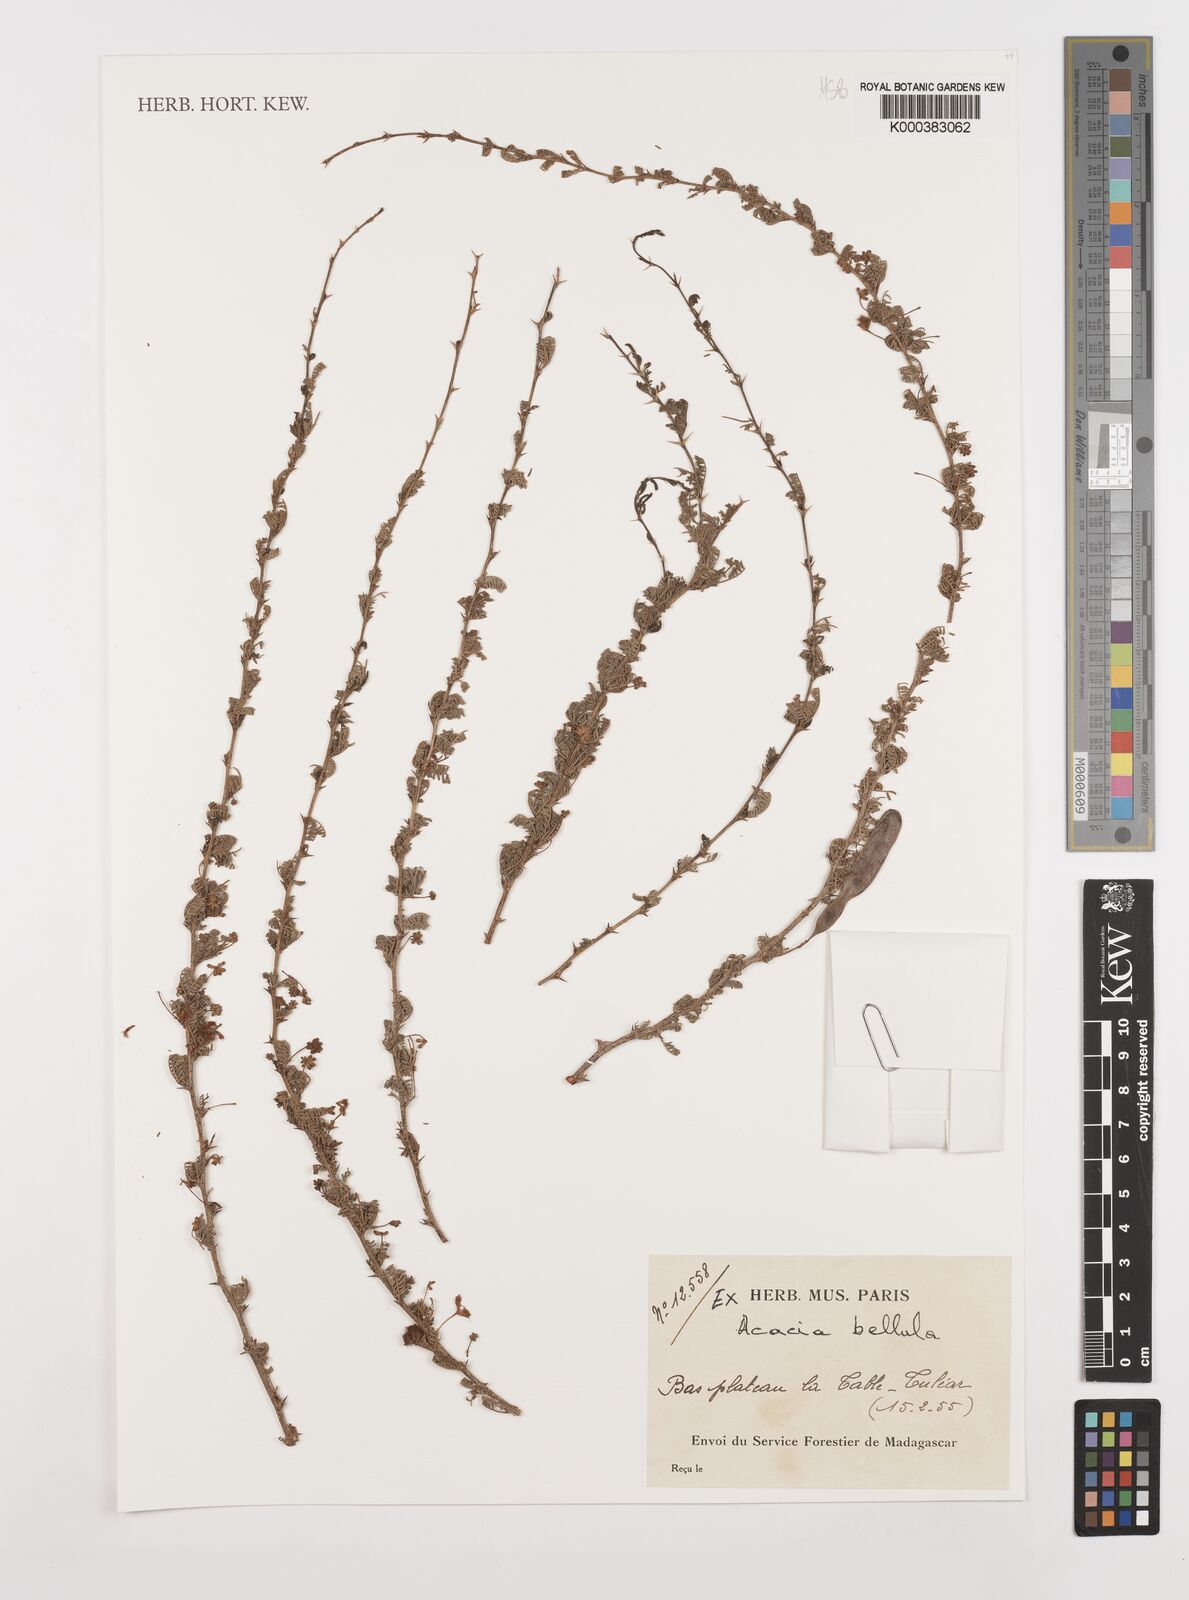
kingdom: Plantae
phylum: Tracheophyta
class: Magnoliopsida
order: Fabales
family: Fabaceae
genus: Vachellia
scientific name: Vachellia bellula
